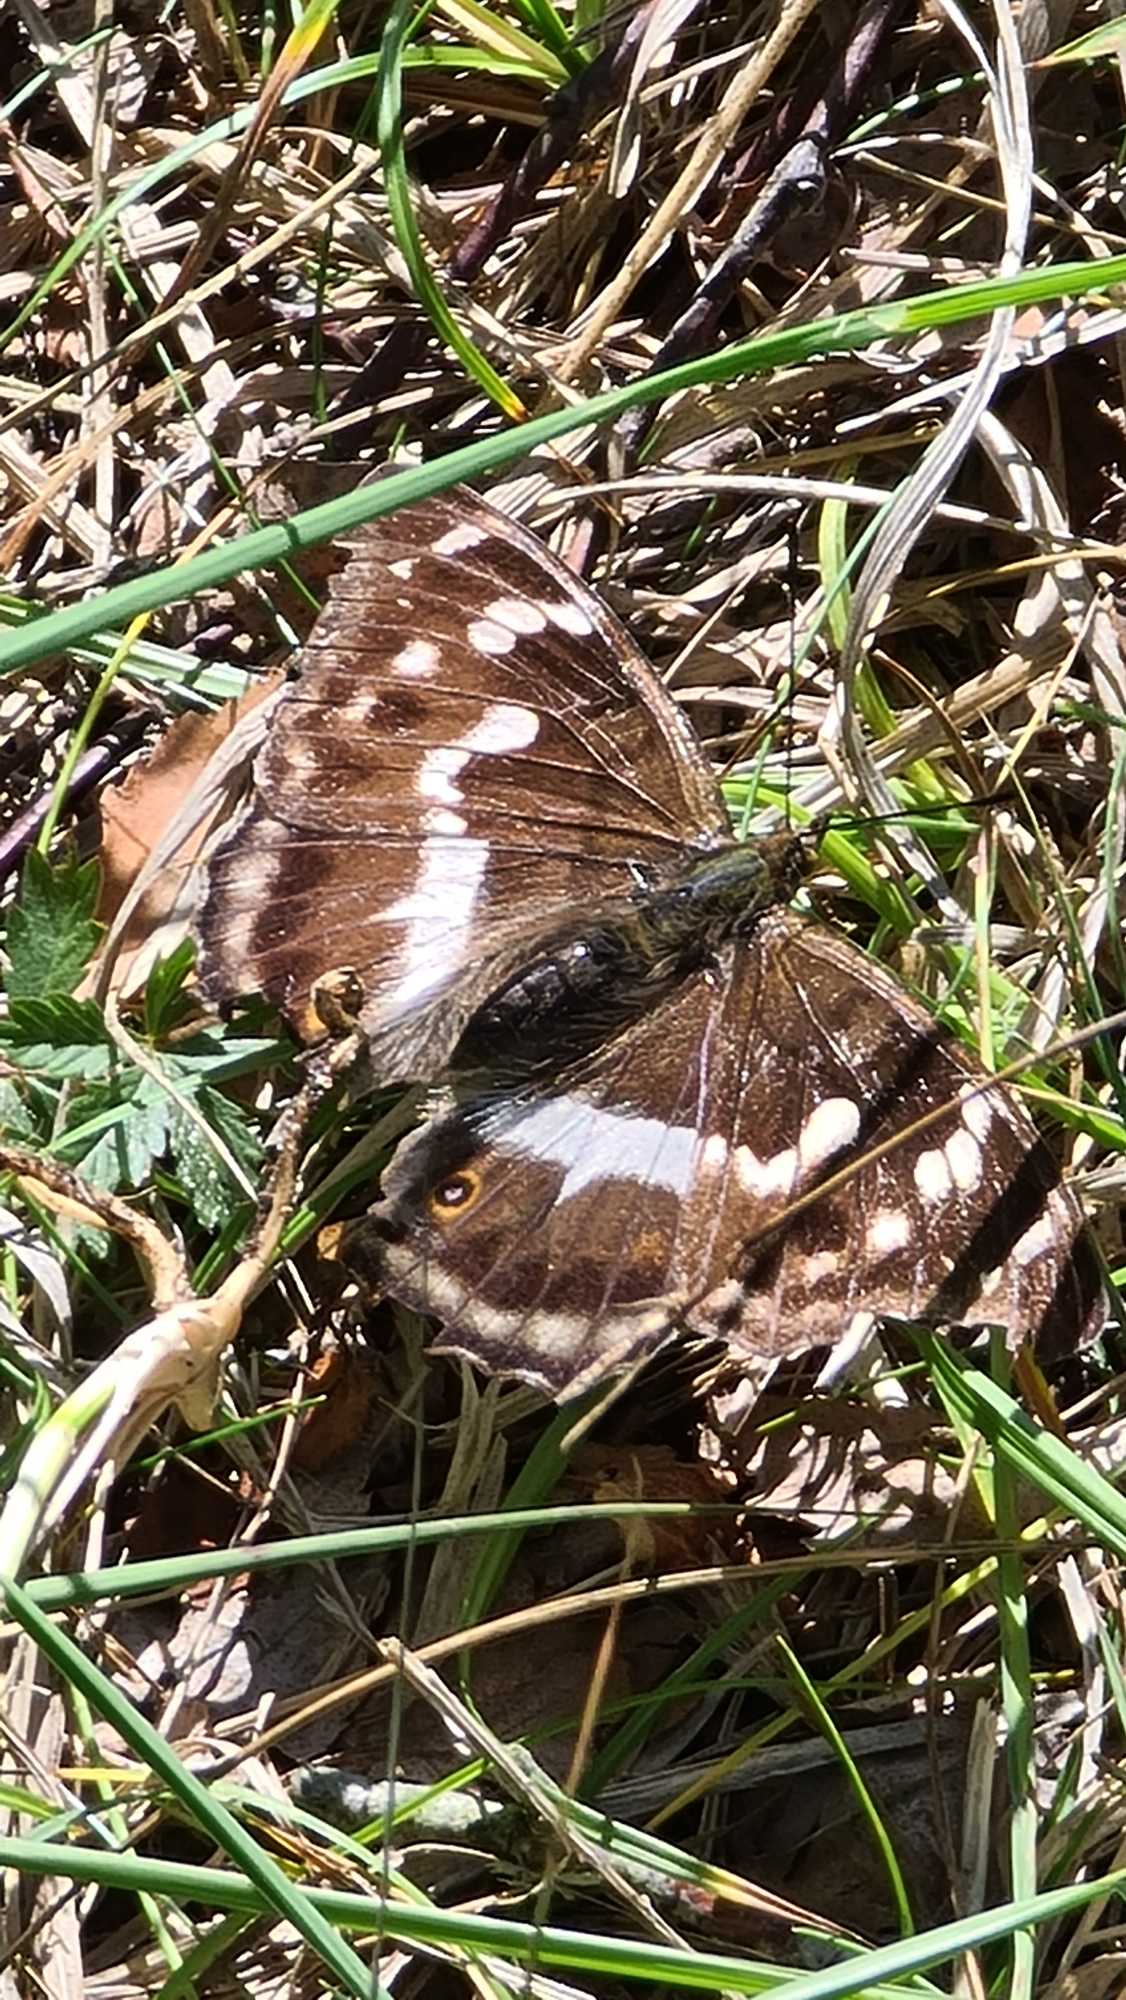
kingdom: Animalia
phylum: Arthropoda
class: Insecta
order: Lepidoptera
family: Nymphalidae
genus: Apatura
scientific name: Apatura iris
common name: Iris
